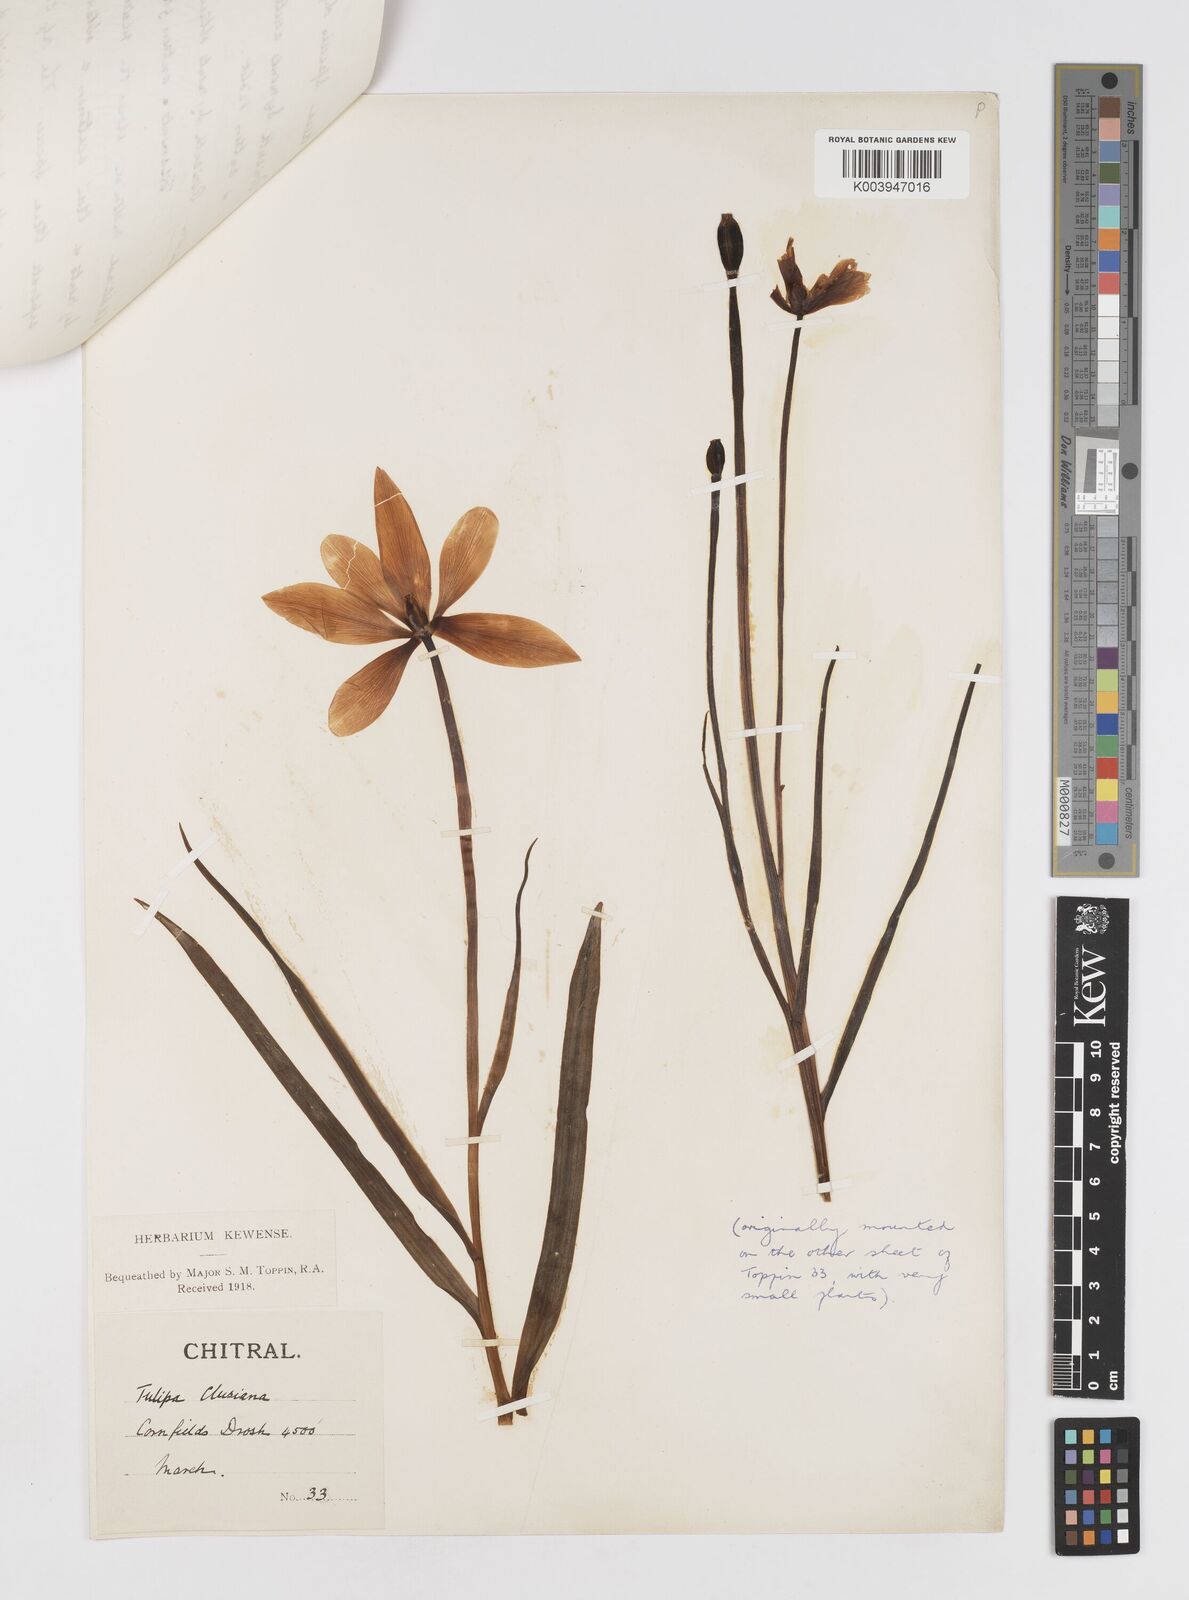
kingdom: Plantae
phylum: Tracheophyta
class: Liliopsida
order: Liliales
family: Liliaceae
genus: Tulipa
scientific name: Tulipa clusiana
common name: Lady tulip
